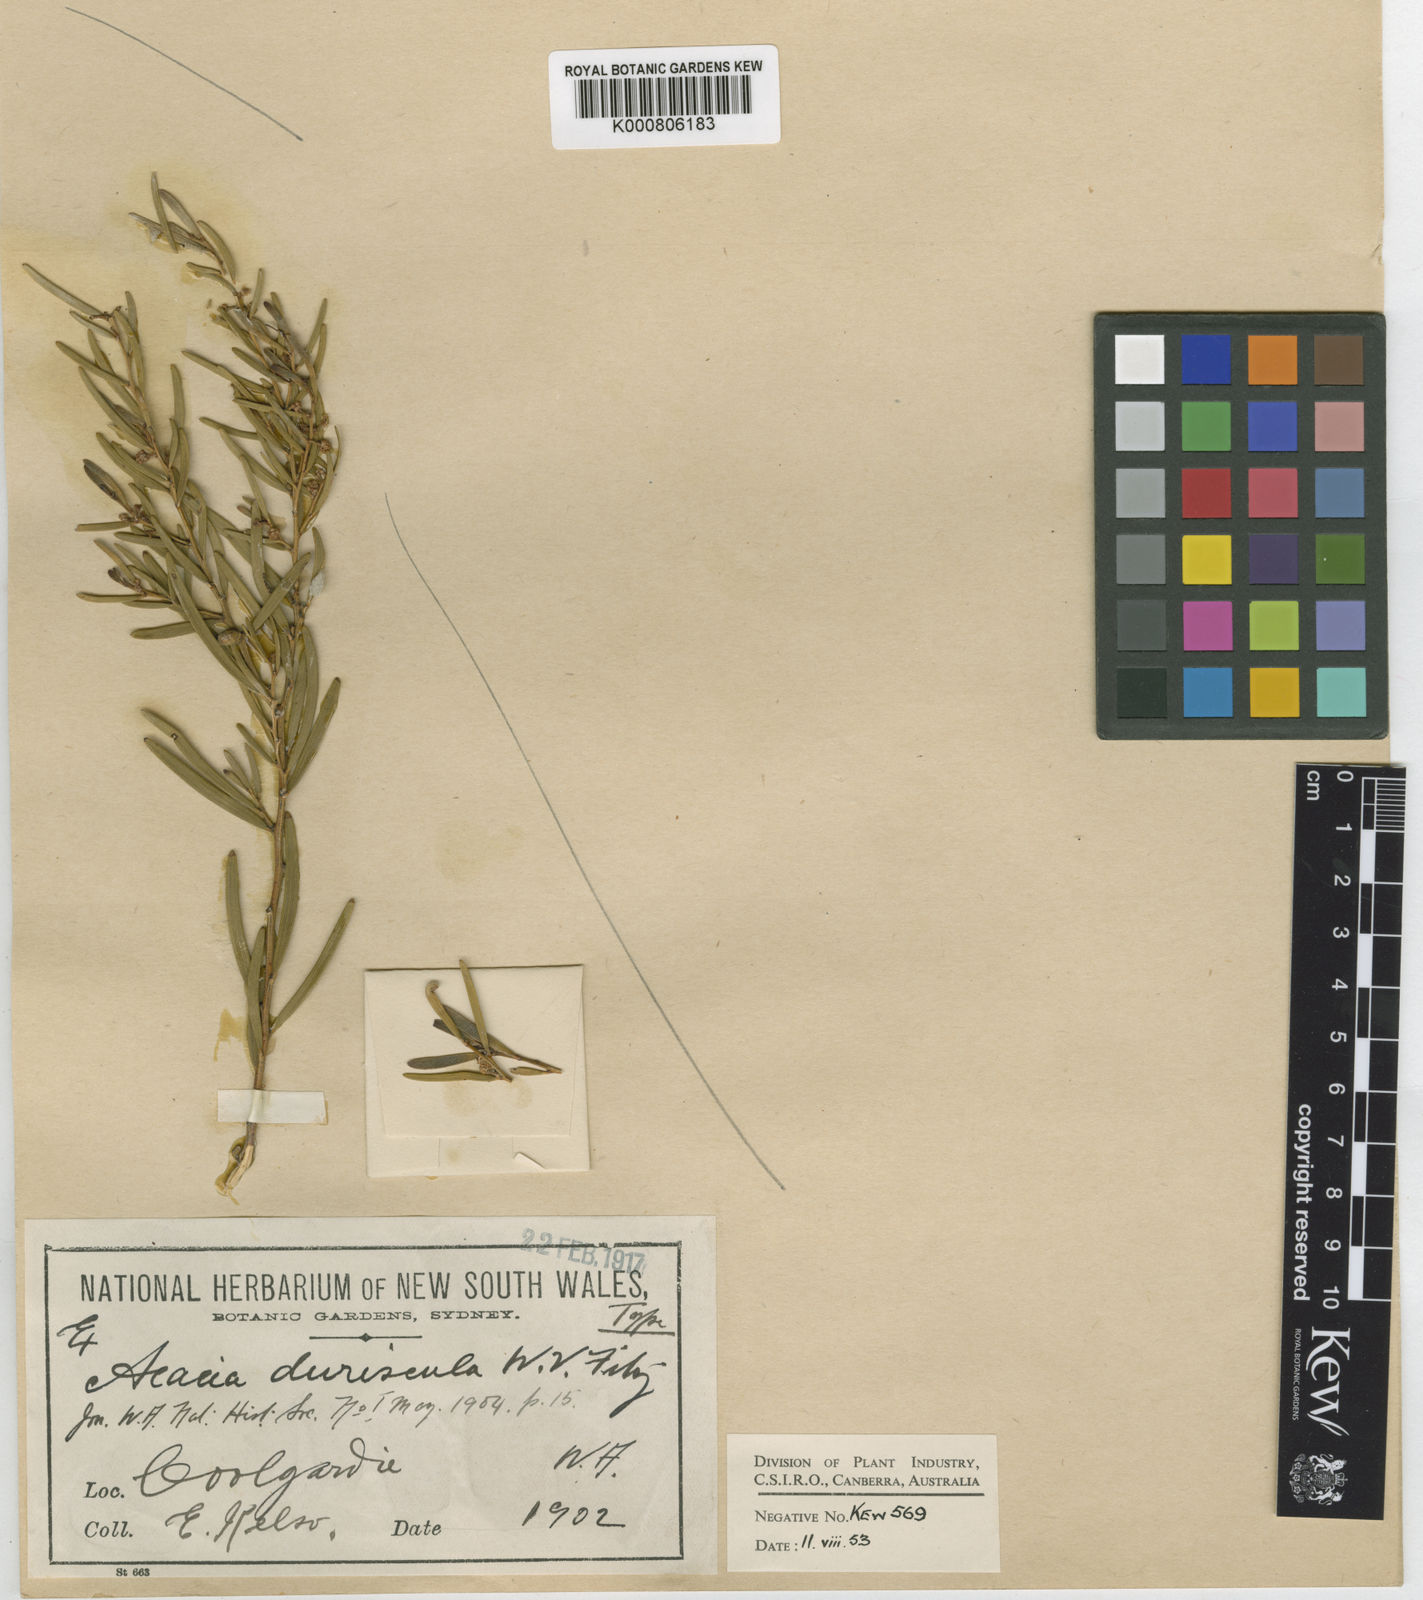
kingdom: Plantae
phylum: Tracheophyta
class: Magnoliopsida
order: Fabales
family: Fabaceae
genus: Acacia
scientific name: Acacia duriuscula
